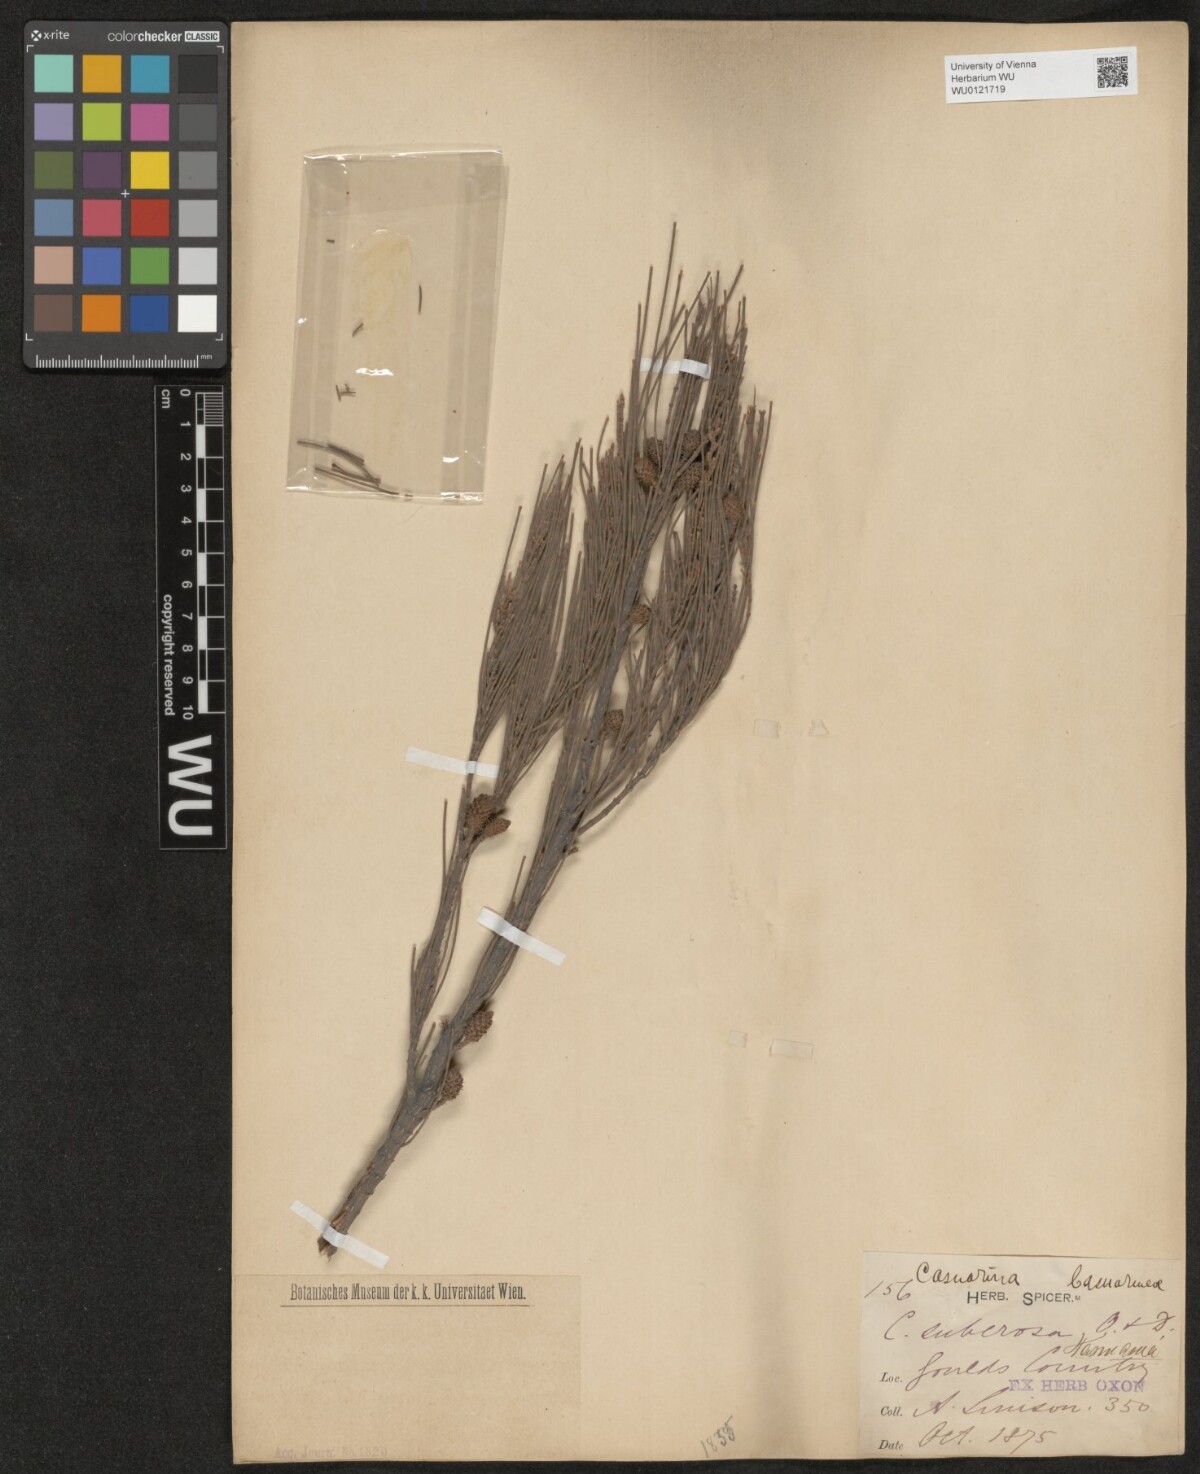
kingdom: Plantae
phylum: Tracheophyta
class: Magnoliopsida
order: Fagales
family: Casuarinaceae
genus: Allocasuarina
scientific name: Allocasuarina littoralis
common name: Black she-oak
